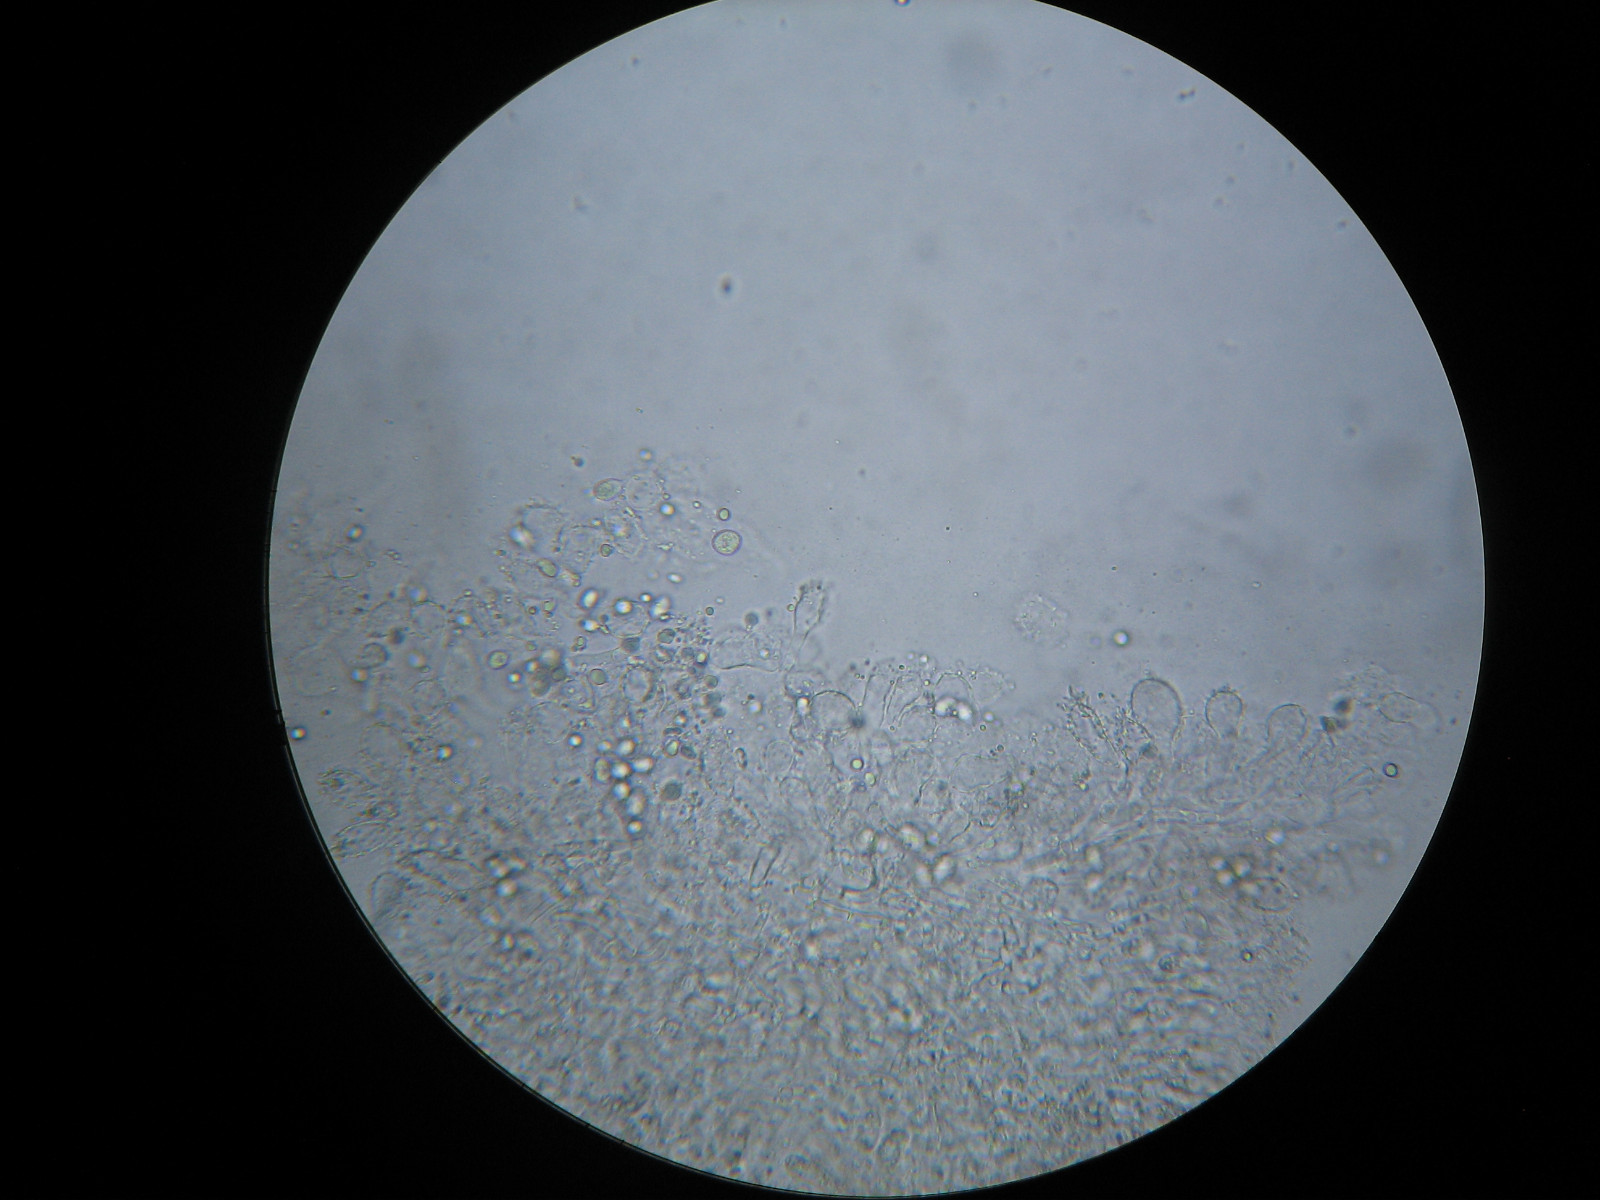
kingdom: Fungi
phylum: Basidiomycota
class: Agaricomycetes
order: Agaricales
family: Mycenaceae
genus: Mycena
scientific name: Mycena megaspora
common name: brusk-huesvamp
